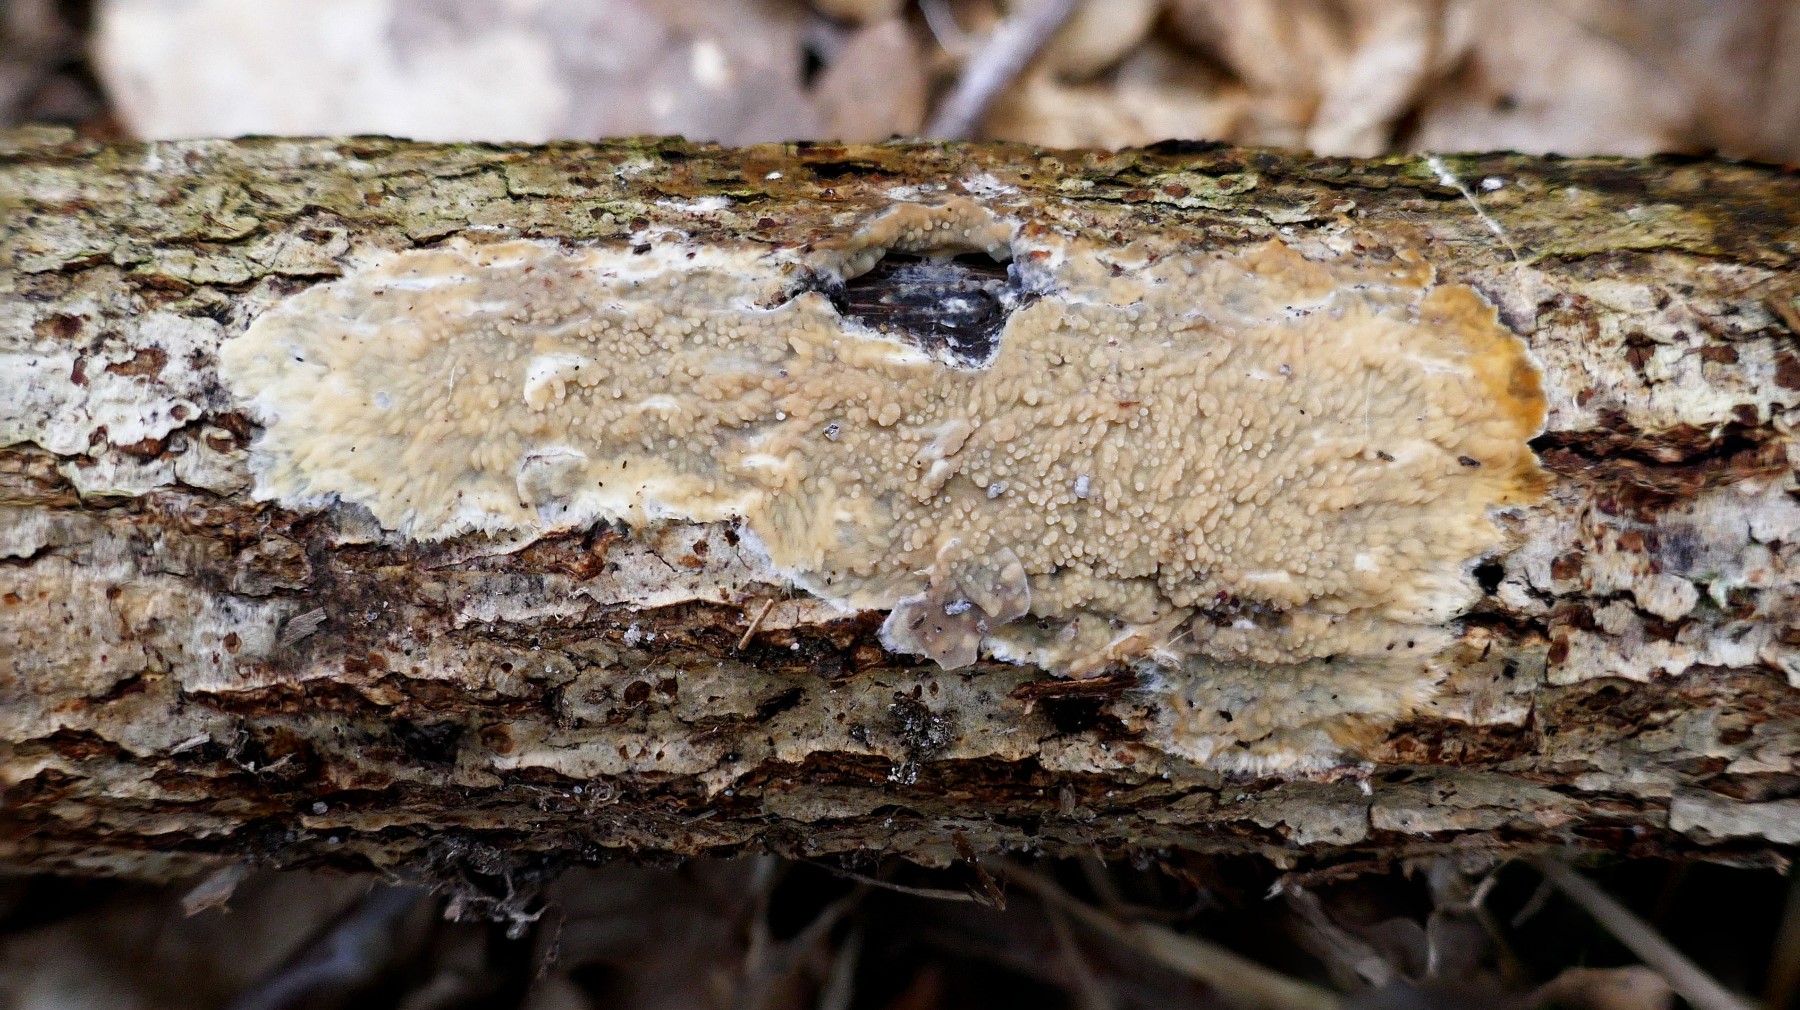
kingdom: Fungi
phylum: Basidiomycota
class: Agaricomycetes
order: Polyporales
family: Meruliaceae
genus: Phlebia
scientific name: Phlebia
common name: åresvamp
